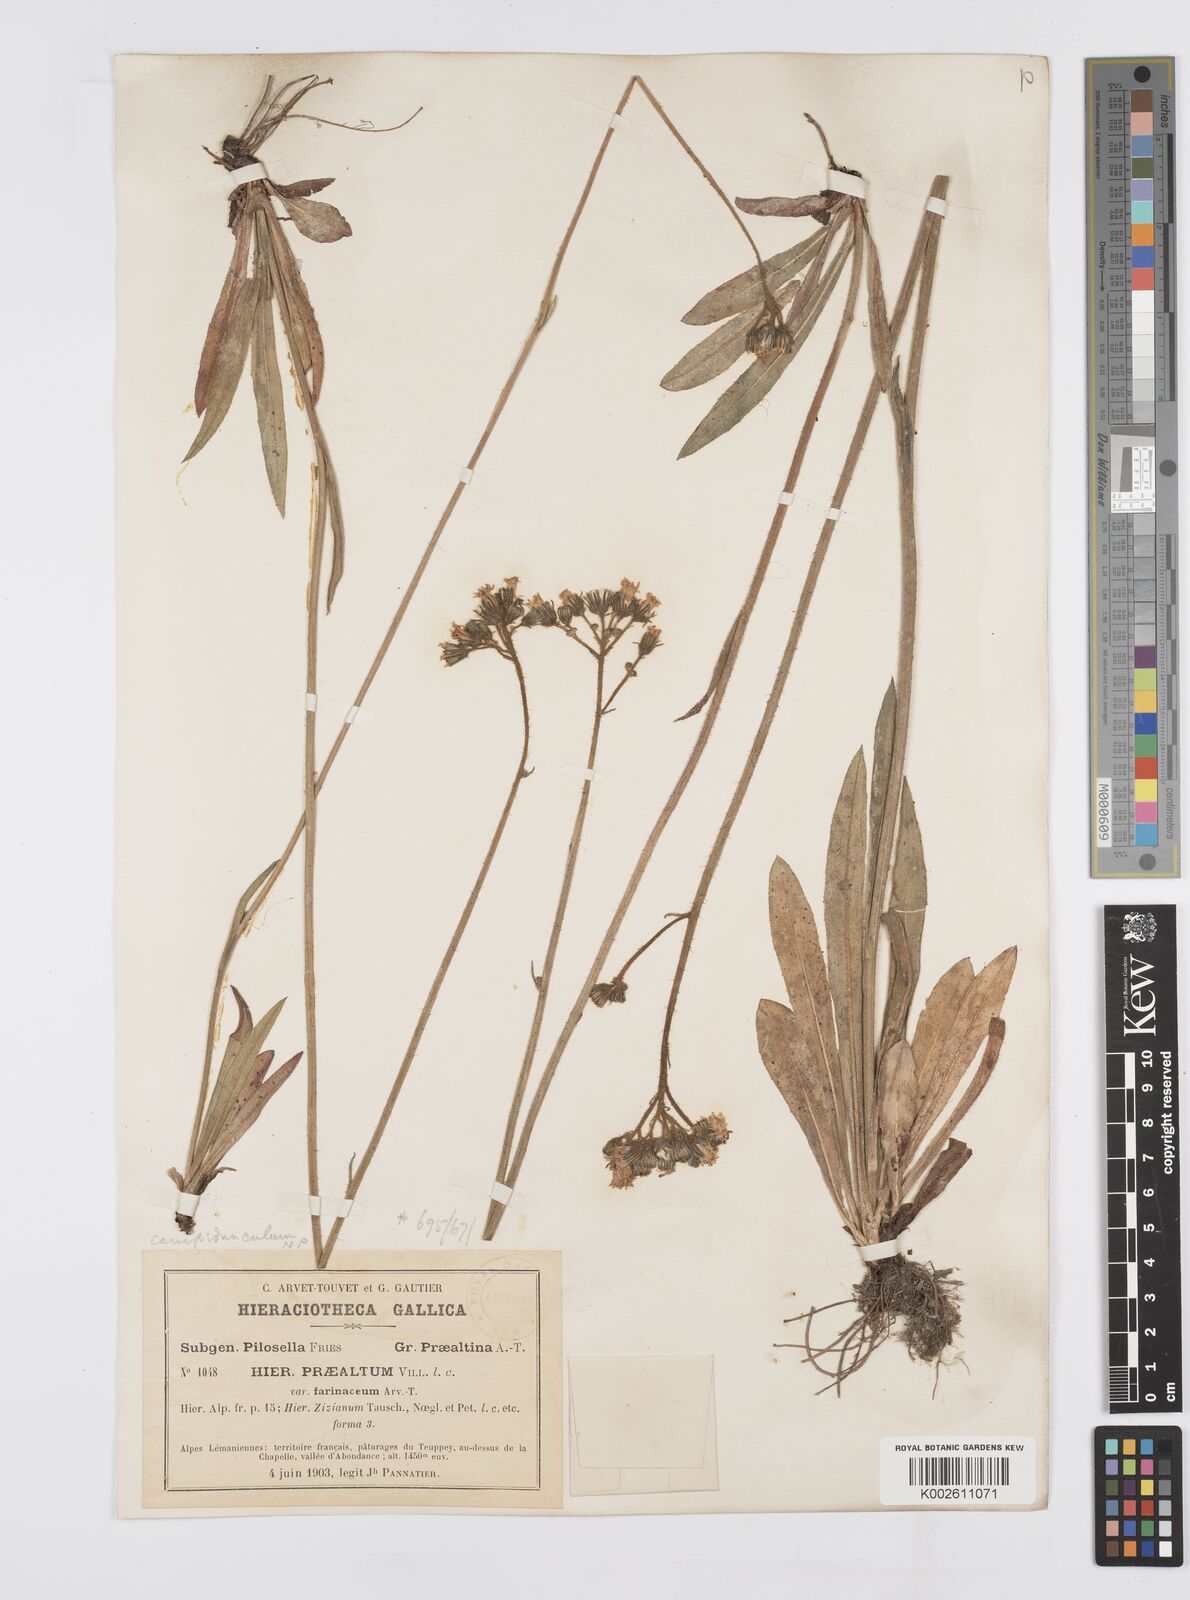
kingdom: Plantae
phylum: Tracheophyta
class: Magnoliopsida
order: Asterales
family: Asteraceae
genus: Pilosella
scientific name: Pilosella piloselloides
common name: Glaucous king-devil
